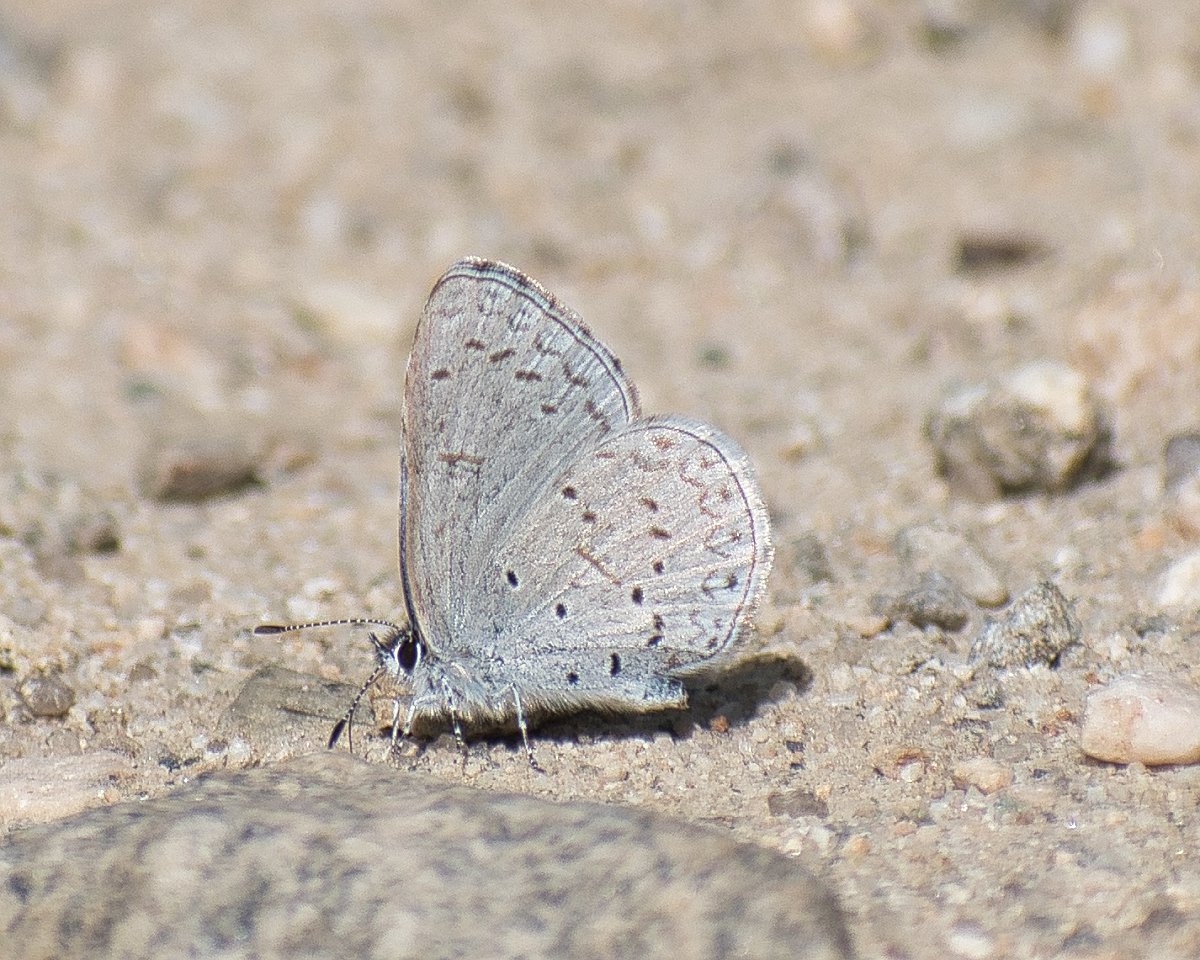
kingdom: Animalia
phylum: Arthropoda
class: Insecta
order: Lepidoptera
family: Lycaenidae
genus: Celastrina
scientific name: Celastrina ladon
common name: Echo Azure
